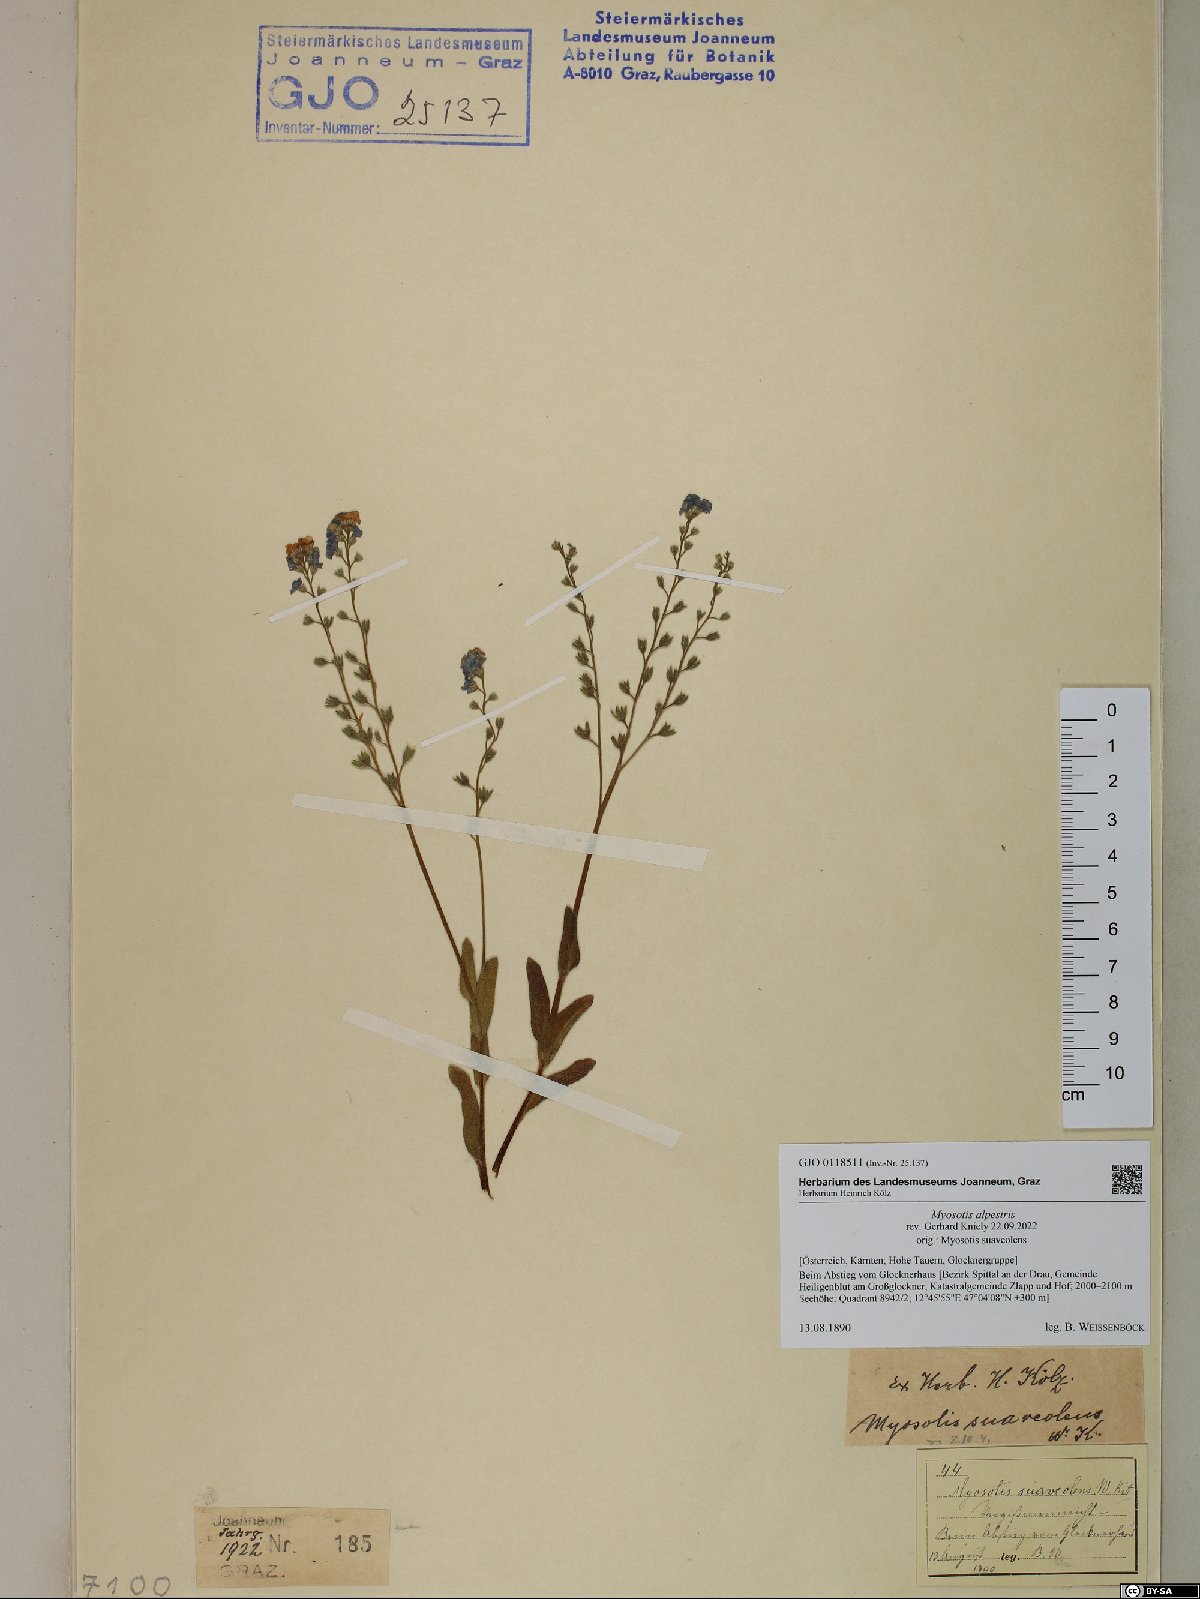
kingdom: Plantae
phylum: Tracheophyta
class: Magnoliopsida
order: Boraginales
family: Boraginaceae
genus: Myosotis
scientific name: Myosotis alpestris
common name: Alpine forget-me-not
